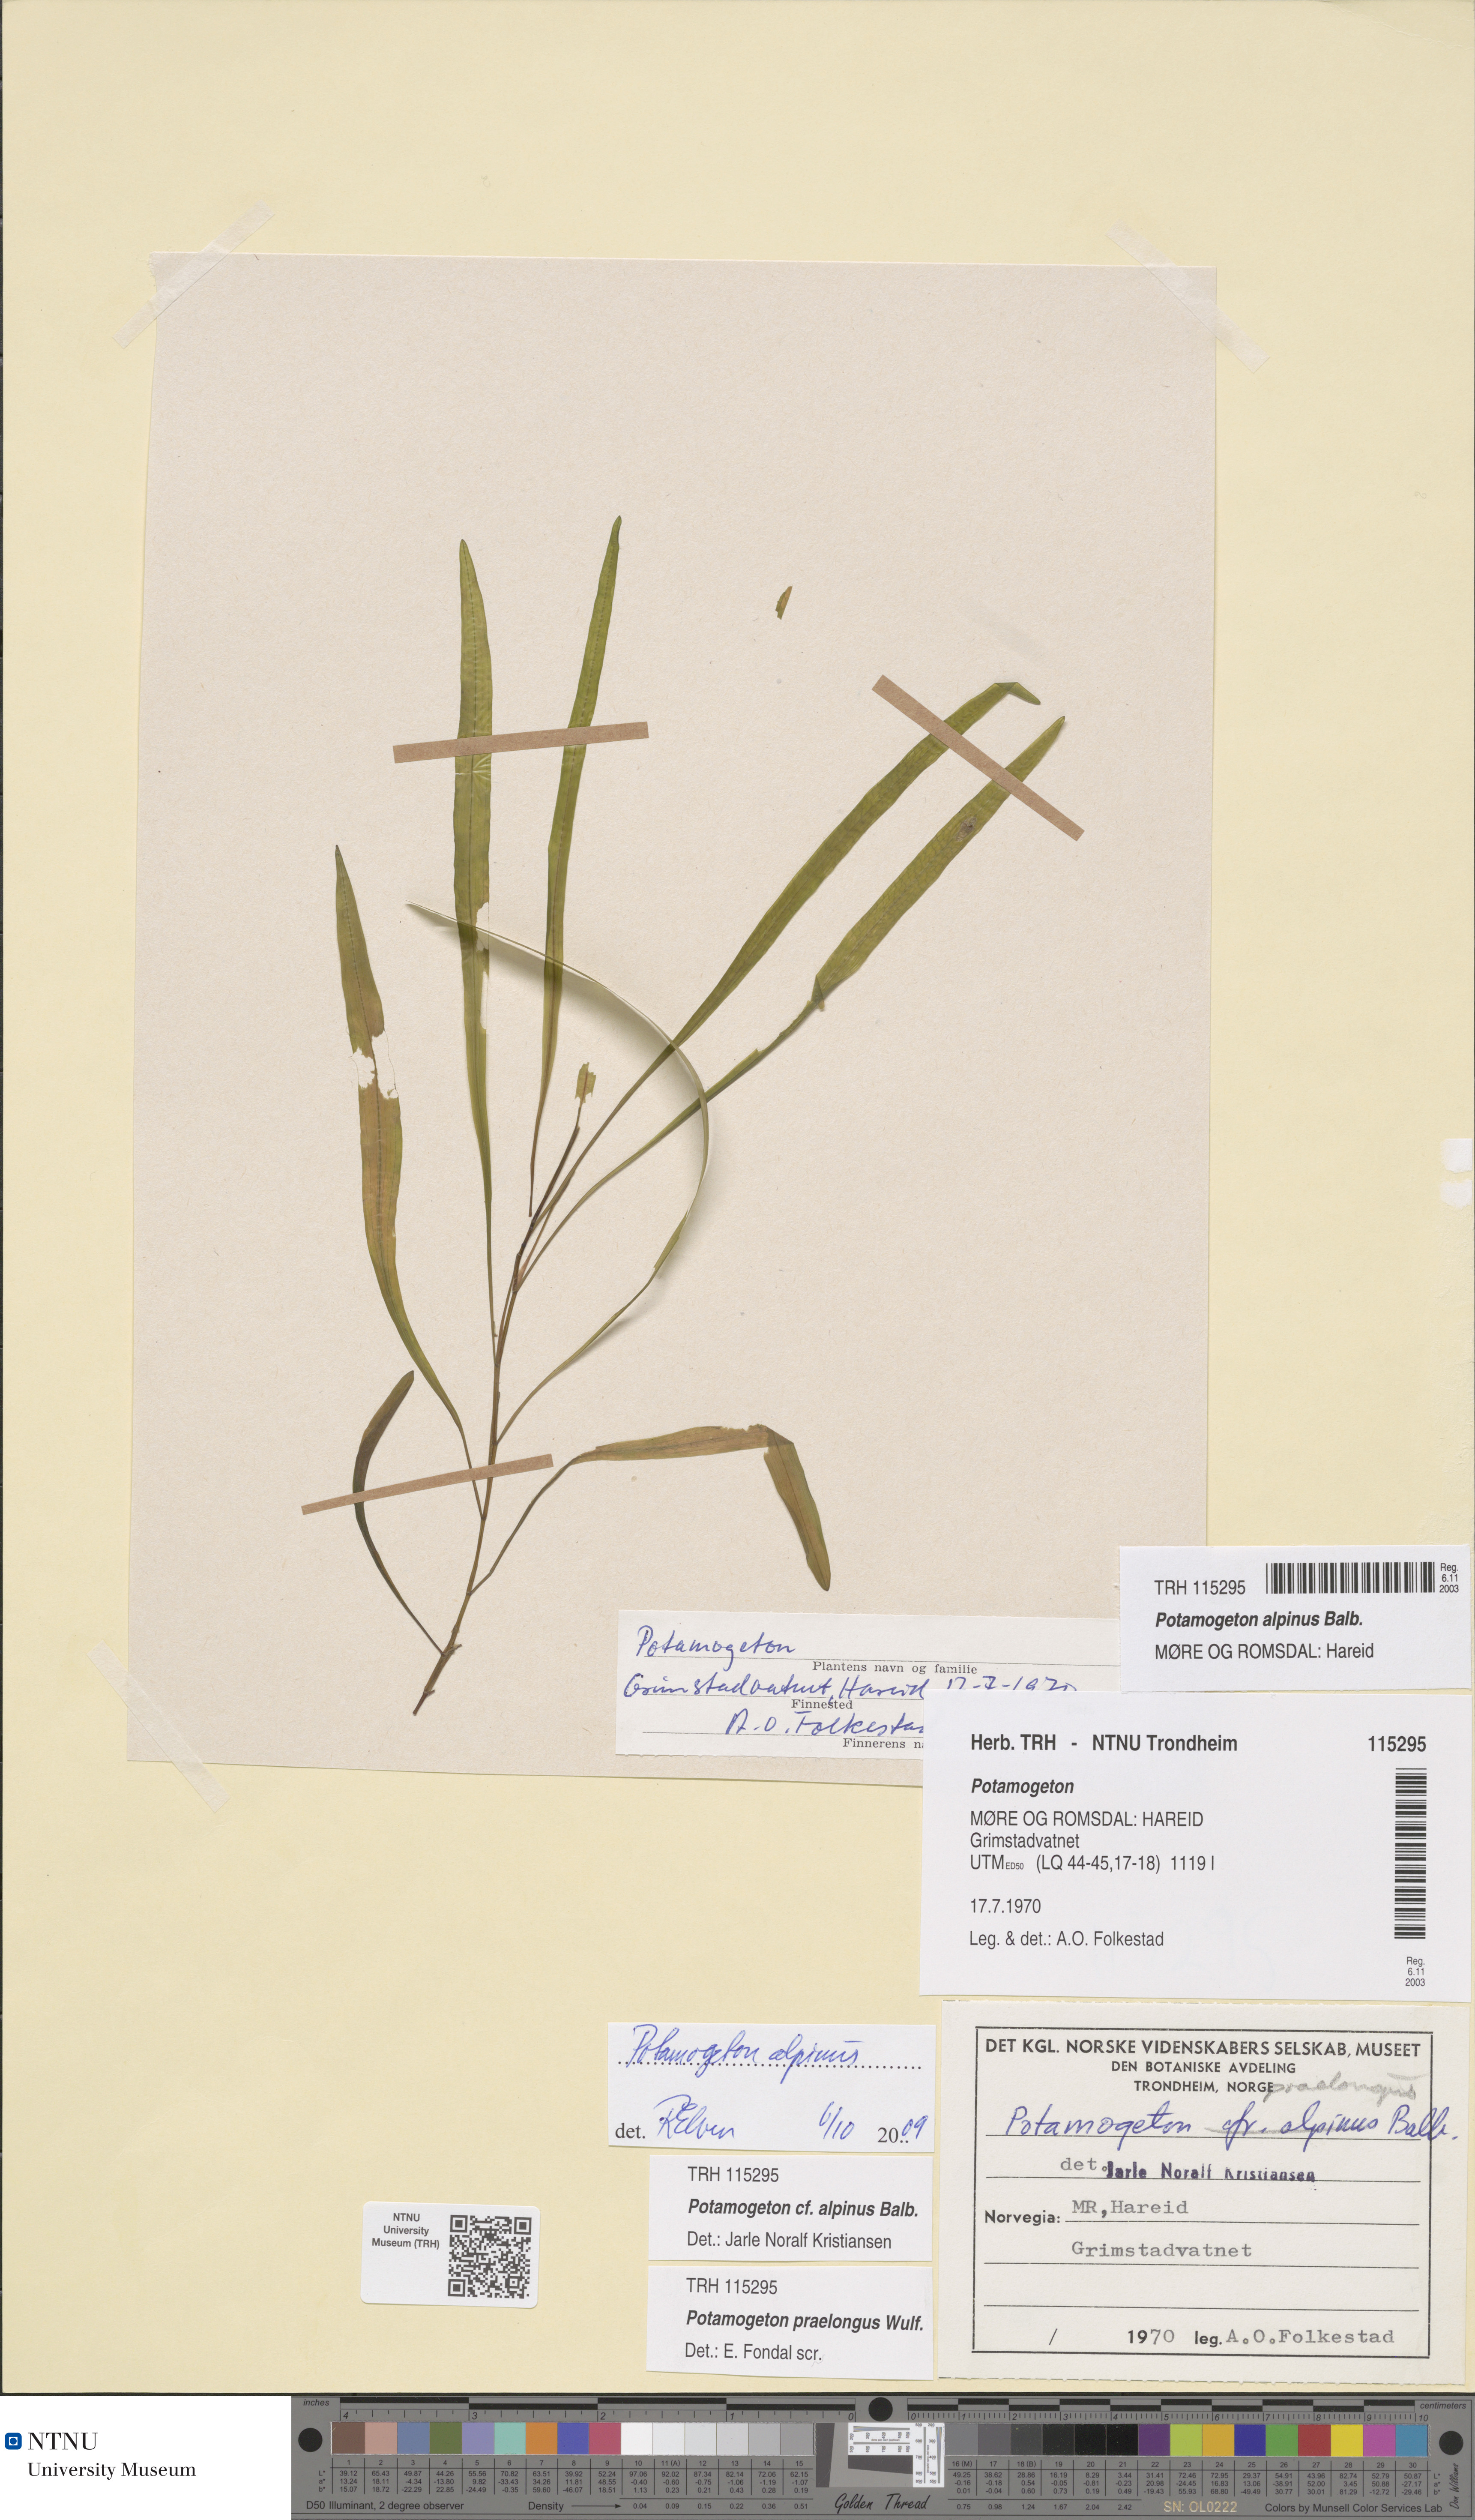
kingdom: Plantae
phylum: Tracheophyta
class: Liliopsida
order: Alismatales
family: Potamogetonaceae
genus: Potamogeton
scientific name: Potamogeton alpinus
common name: Red pondweed
